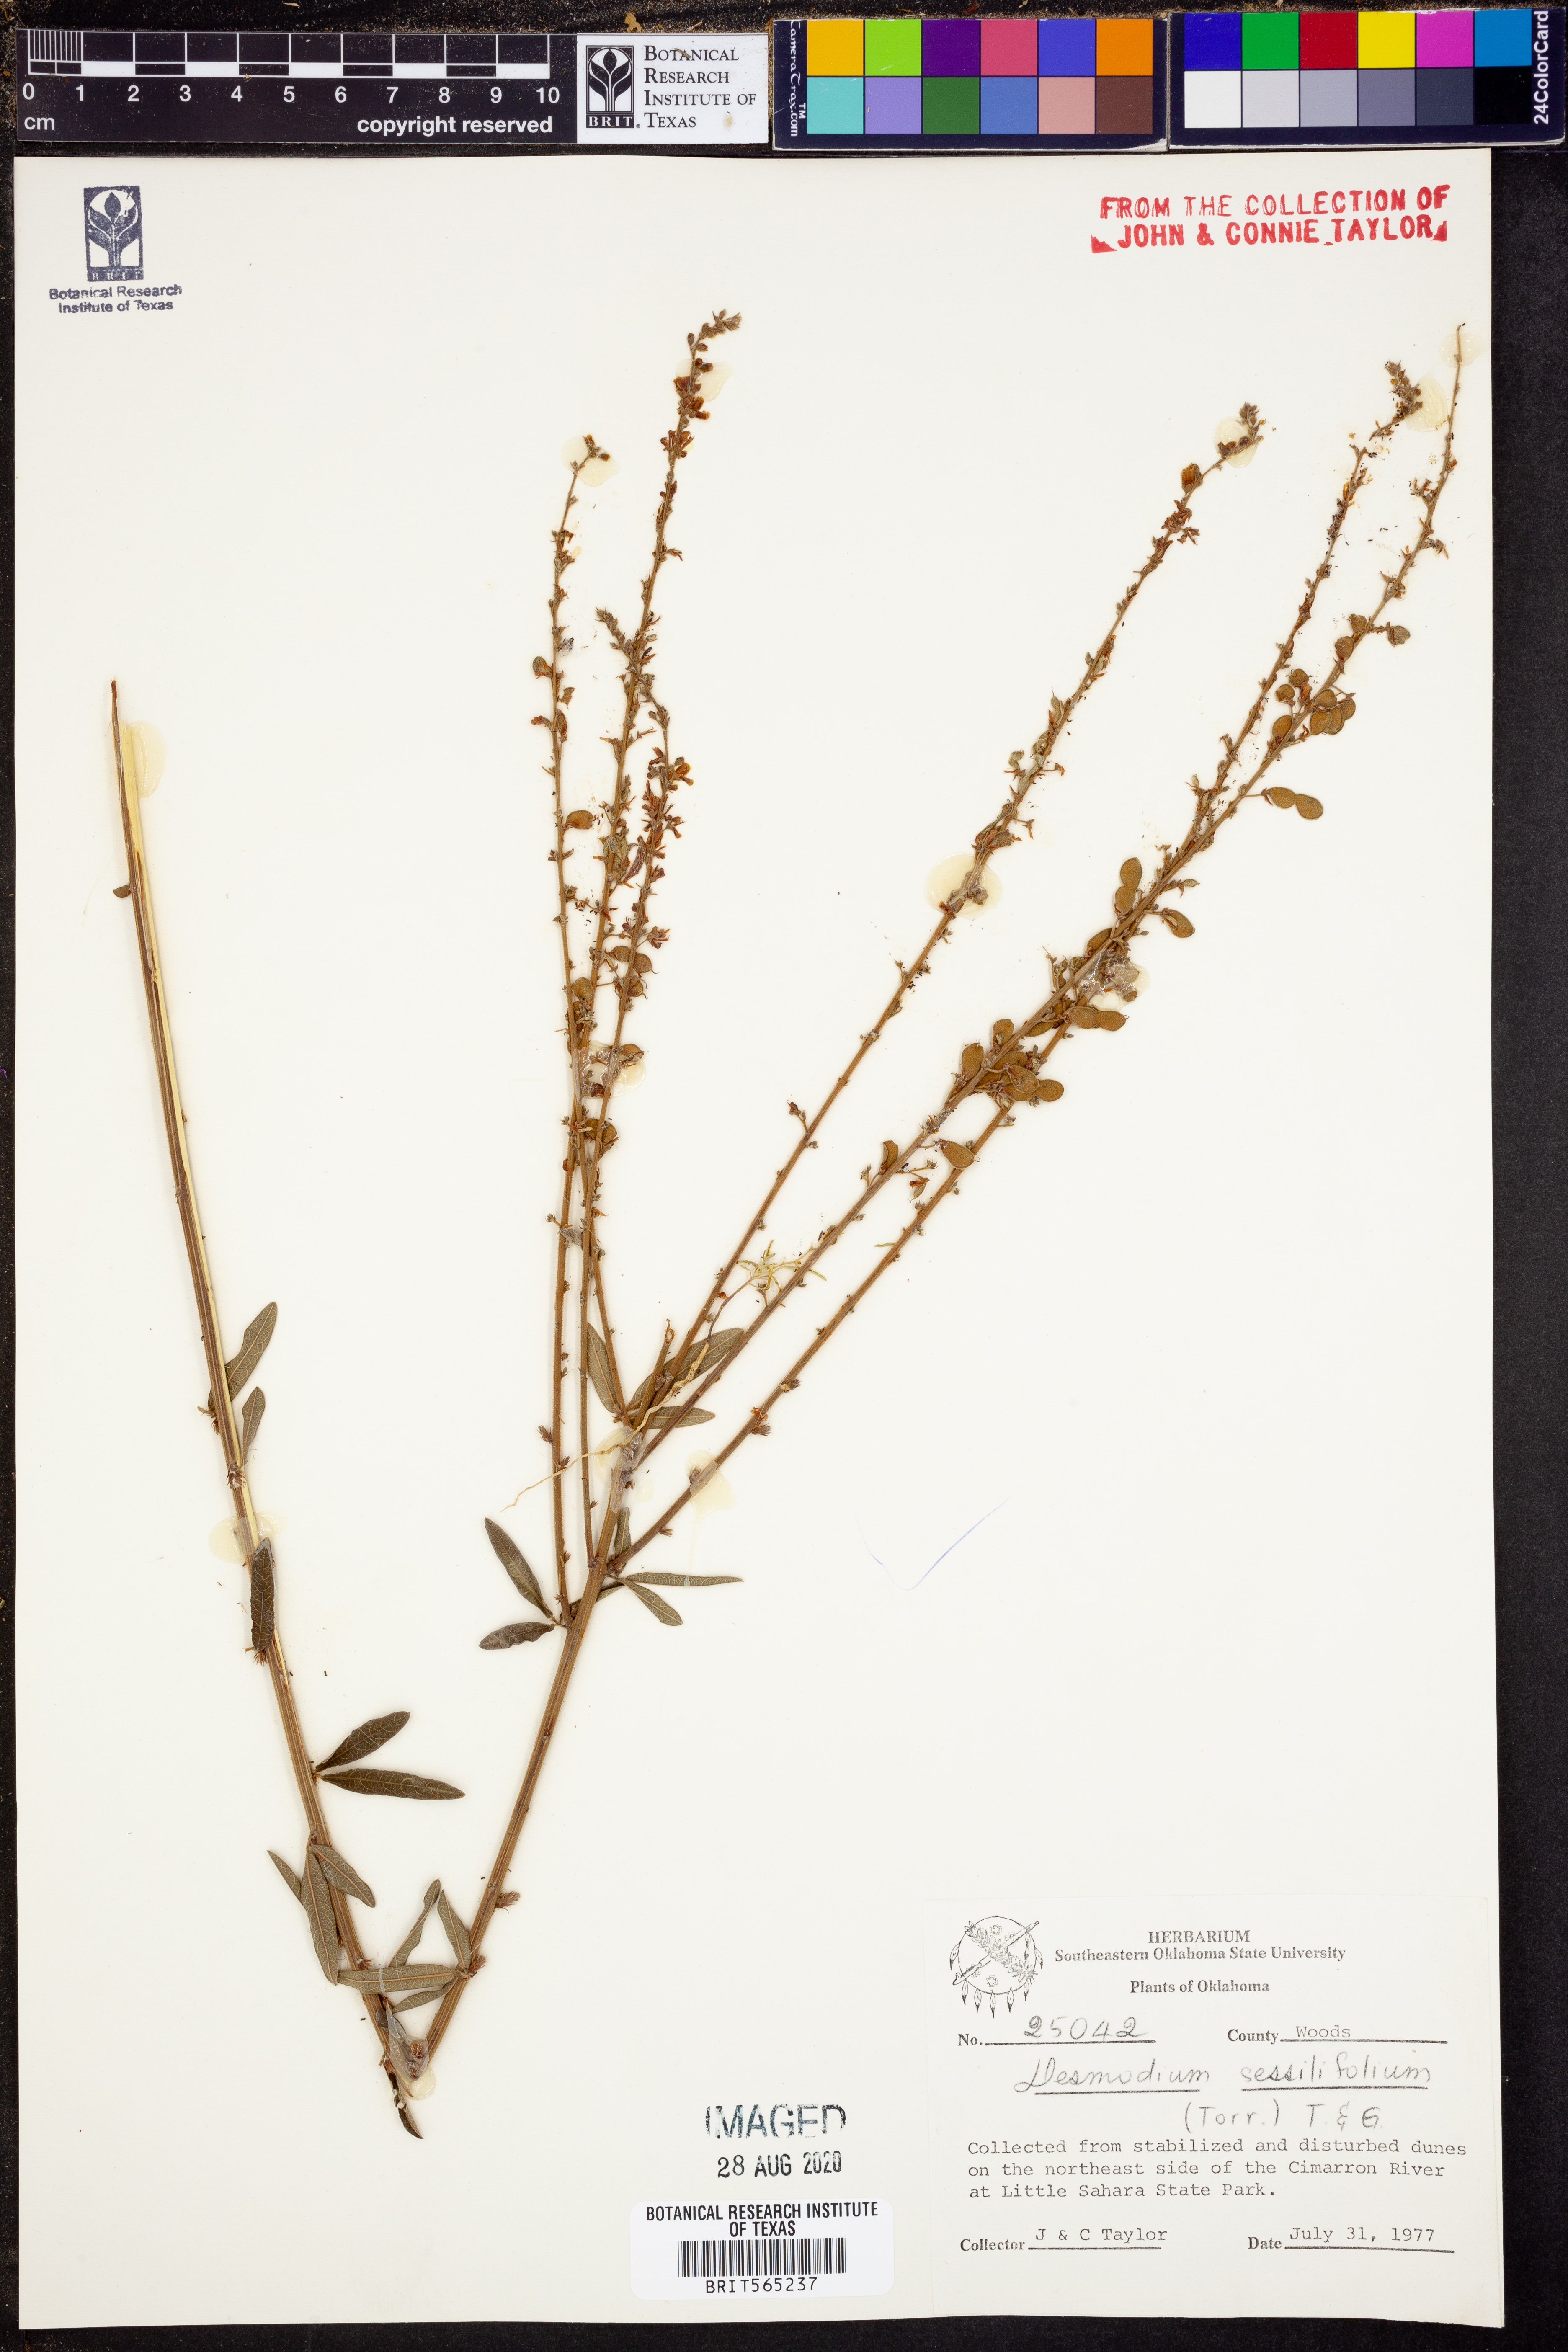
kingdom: Plantae
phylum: Tracheophyta
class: Magnoliopsida
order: Fabales
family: Fabaceae
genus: Desmodium
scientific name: Desmodium sessilifolium
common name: Sessile tick-clover
